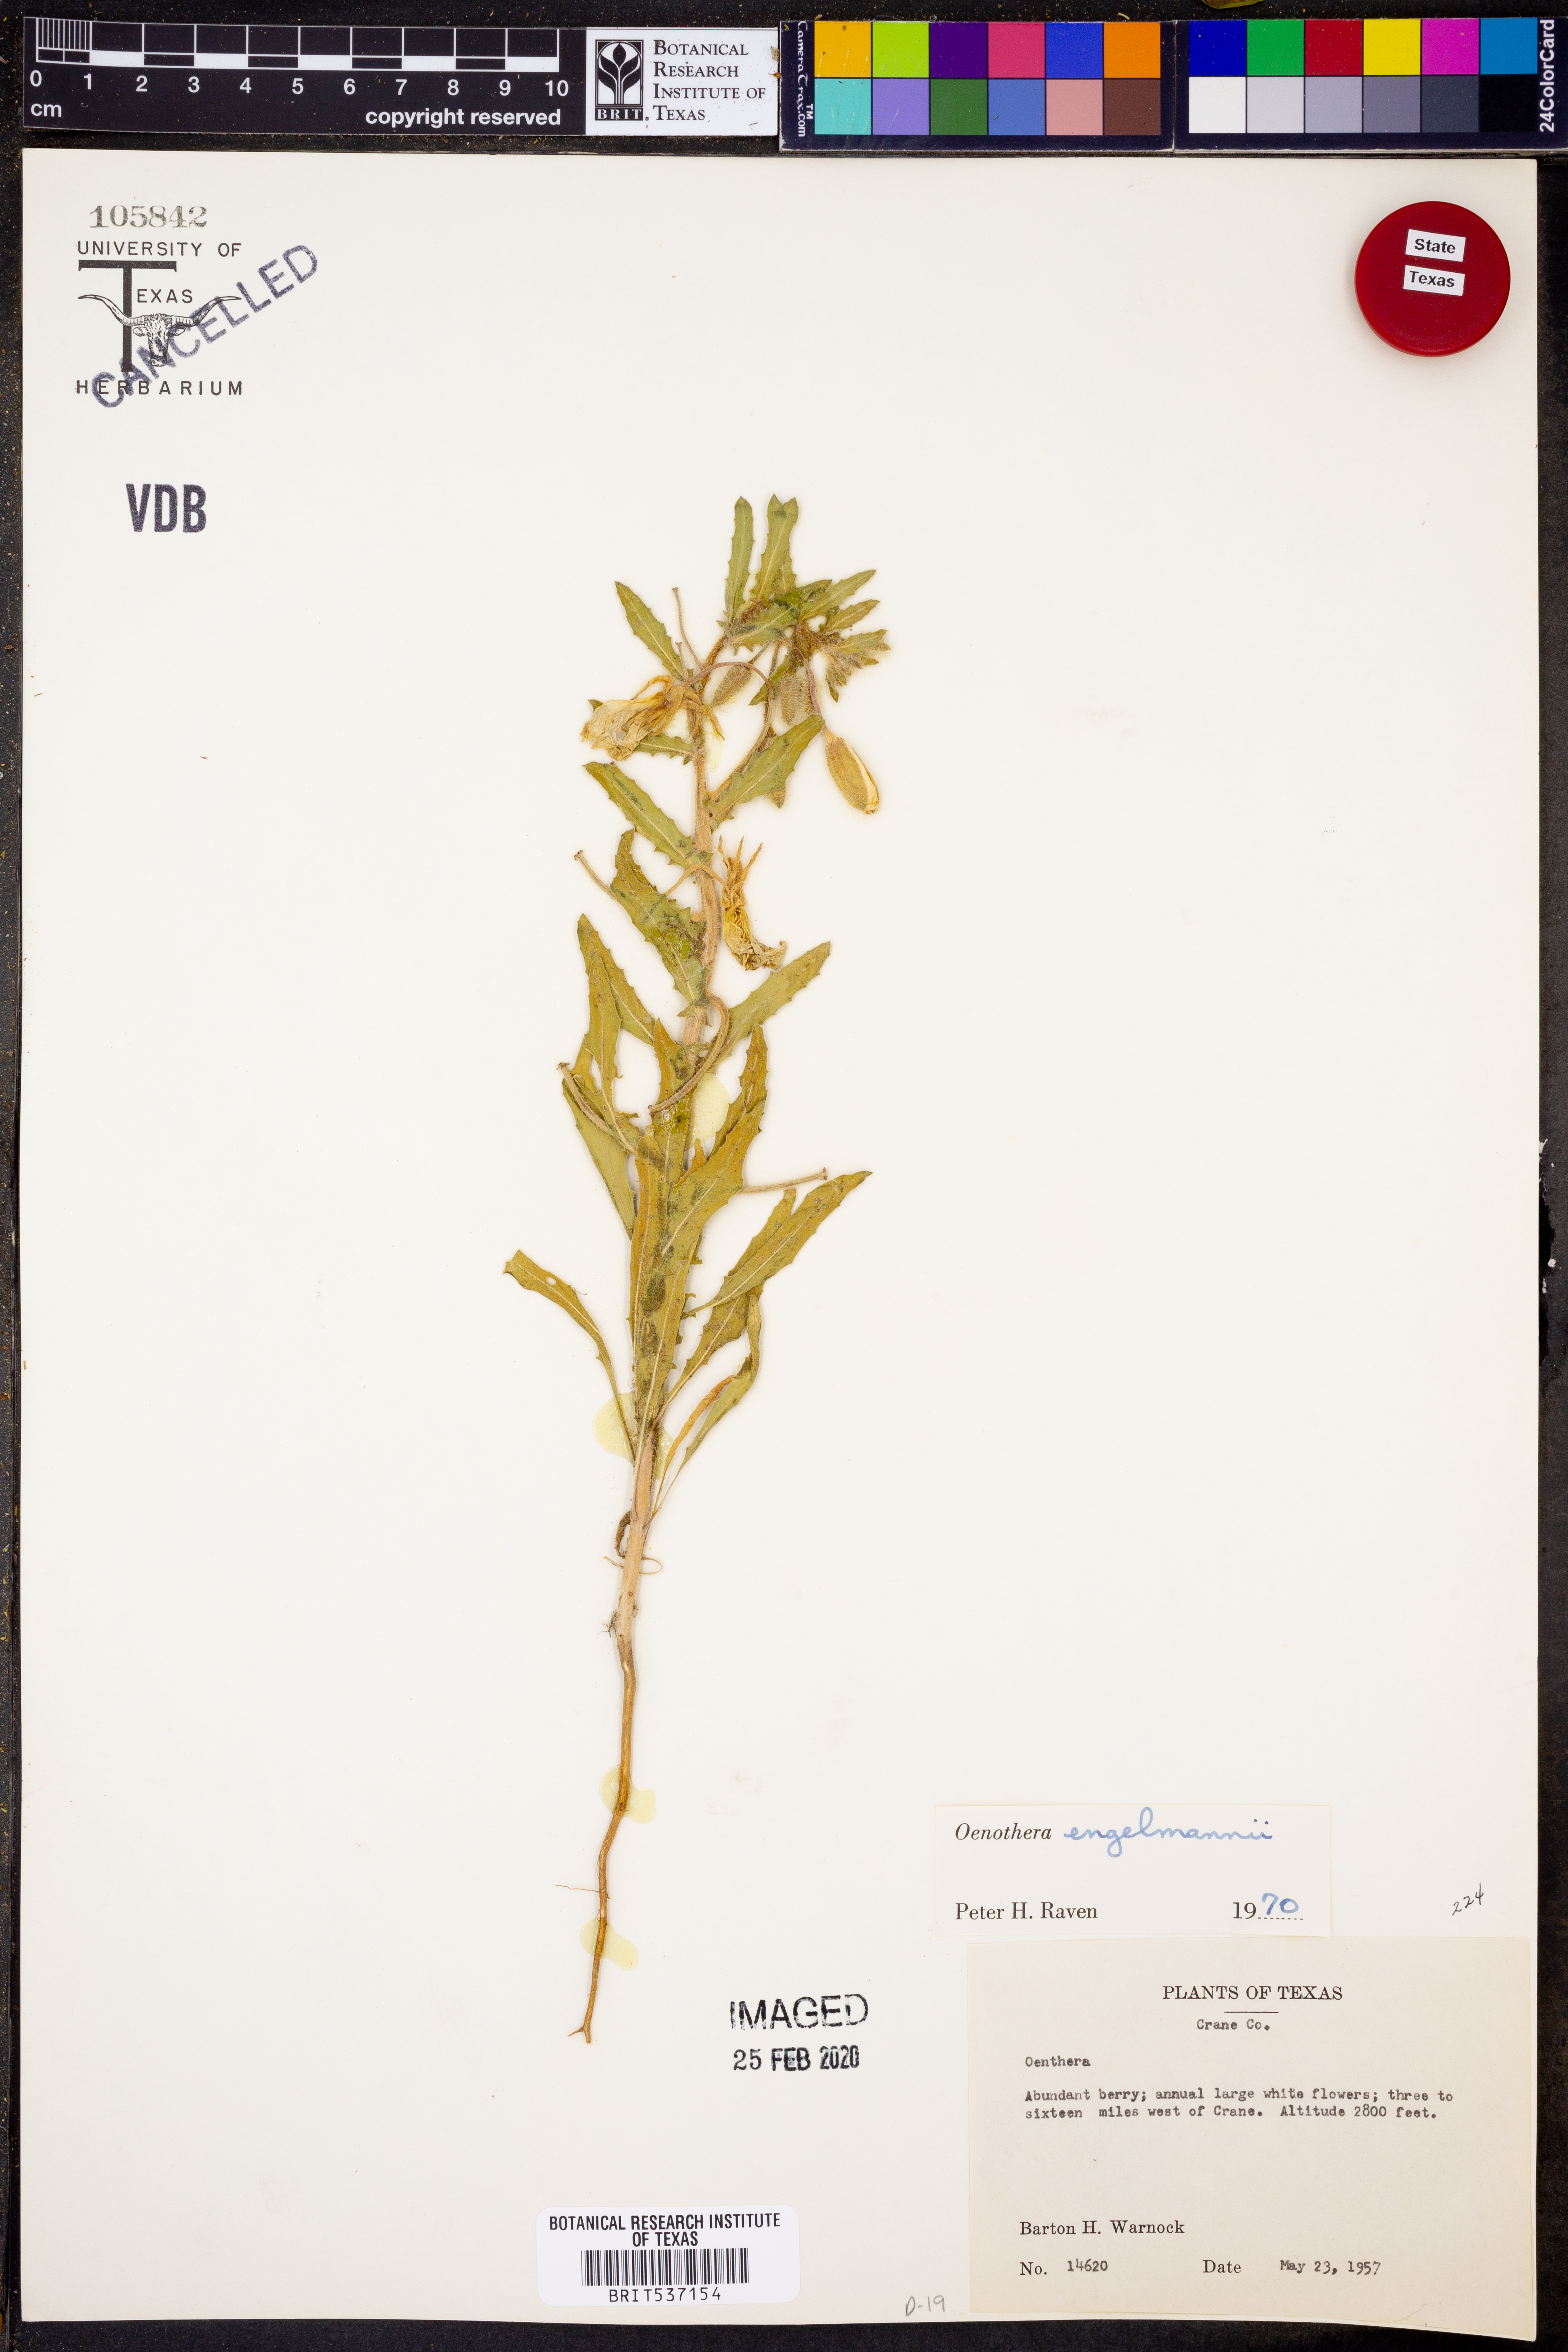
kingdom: Plantae
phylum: Tracheophyta
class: Magnoliopsida
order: Myrtales
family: Onagraceae
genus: Oenothera
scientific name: Oenothera engelmannii
